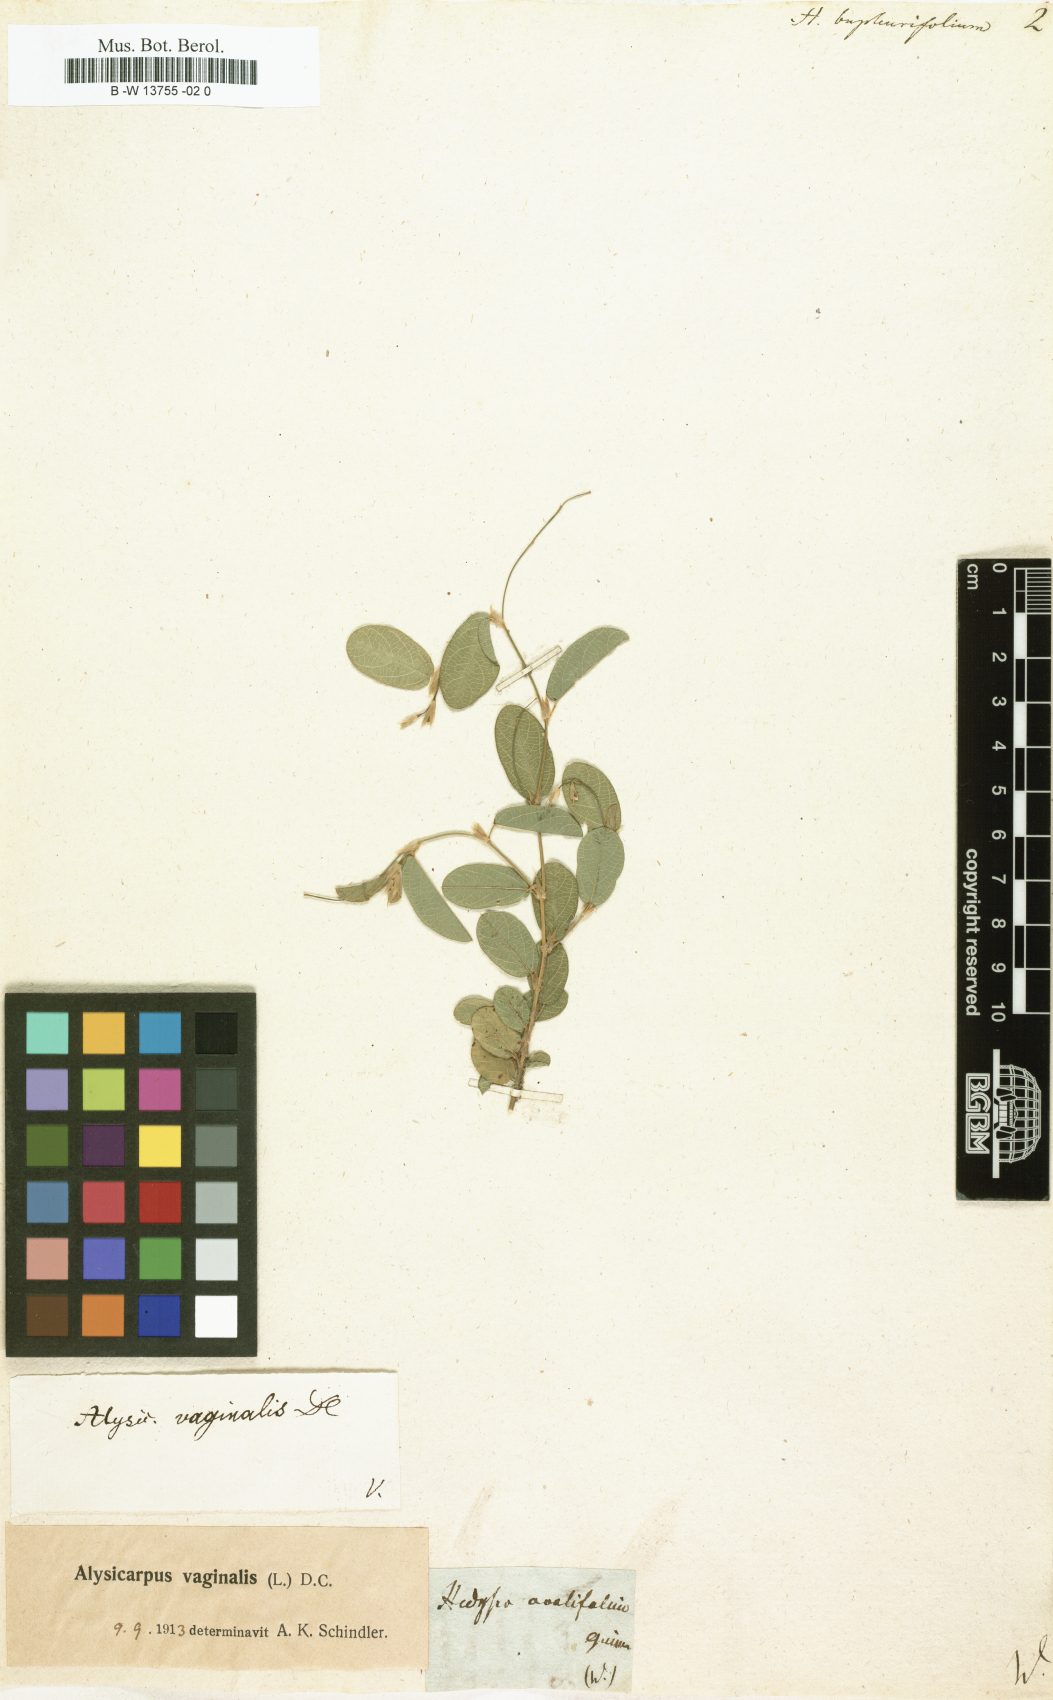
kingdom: Plantae
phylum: Tracheophyta
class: Magnoliopsida
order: Fabales
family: Fabaceae
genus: Alysicarpus
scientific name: Alysicarpus bupleurifolius
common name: Sweet alys
